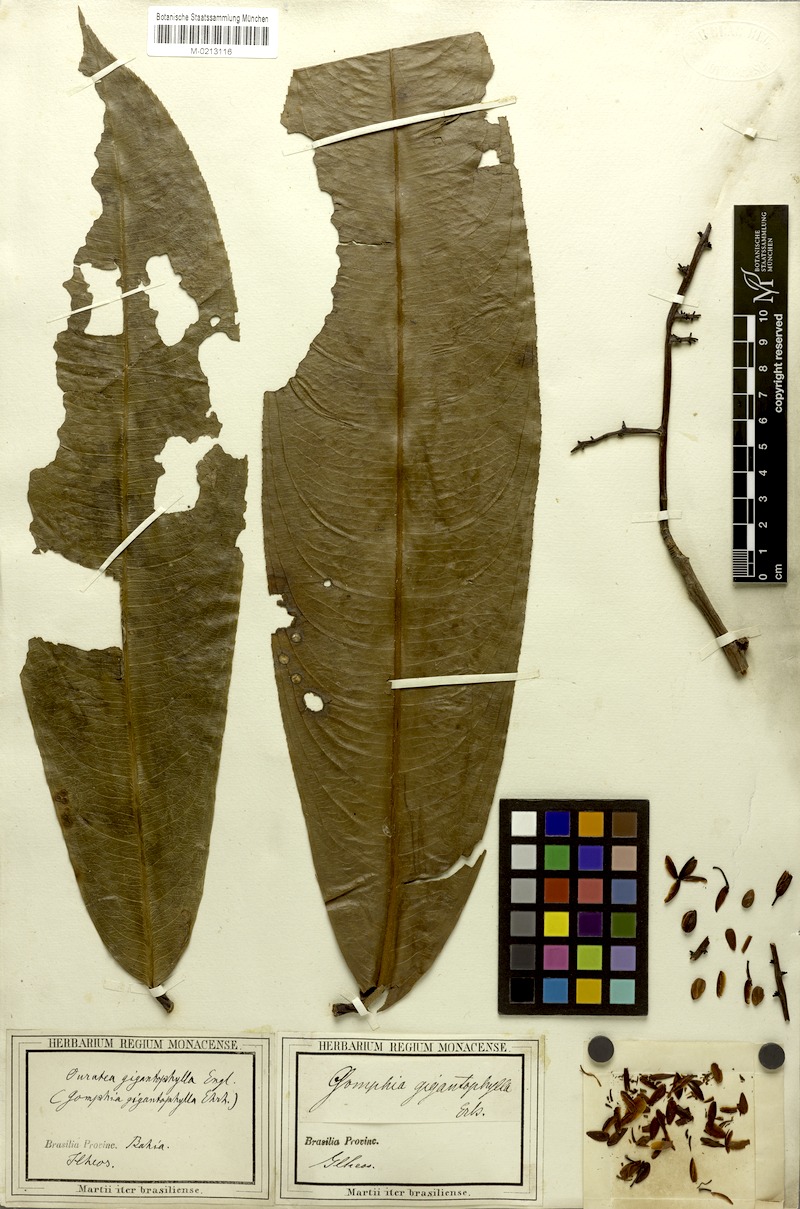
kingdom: Plantae
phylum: Tracheophyta
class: Magnoliopsida
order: Malpighiales
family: Ochnaceae
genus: Ouratea
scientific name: Ouratea gigantophylla
